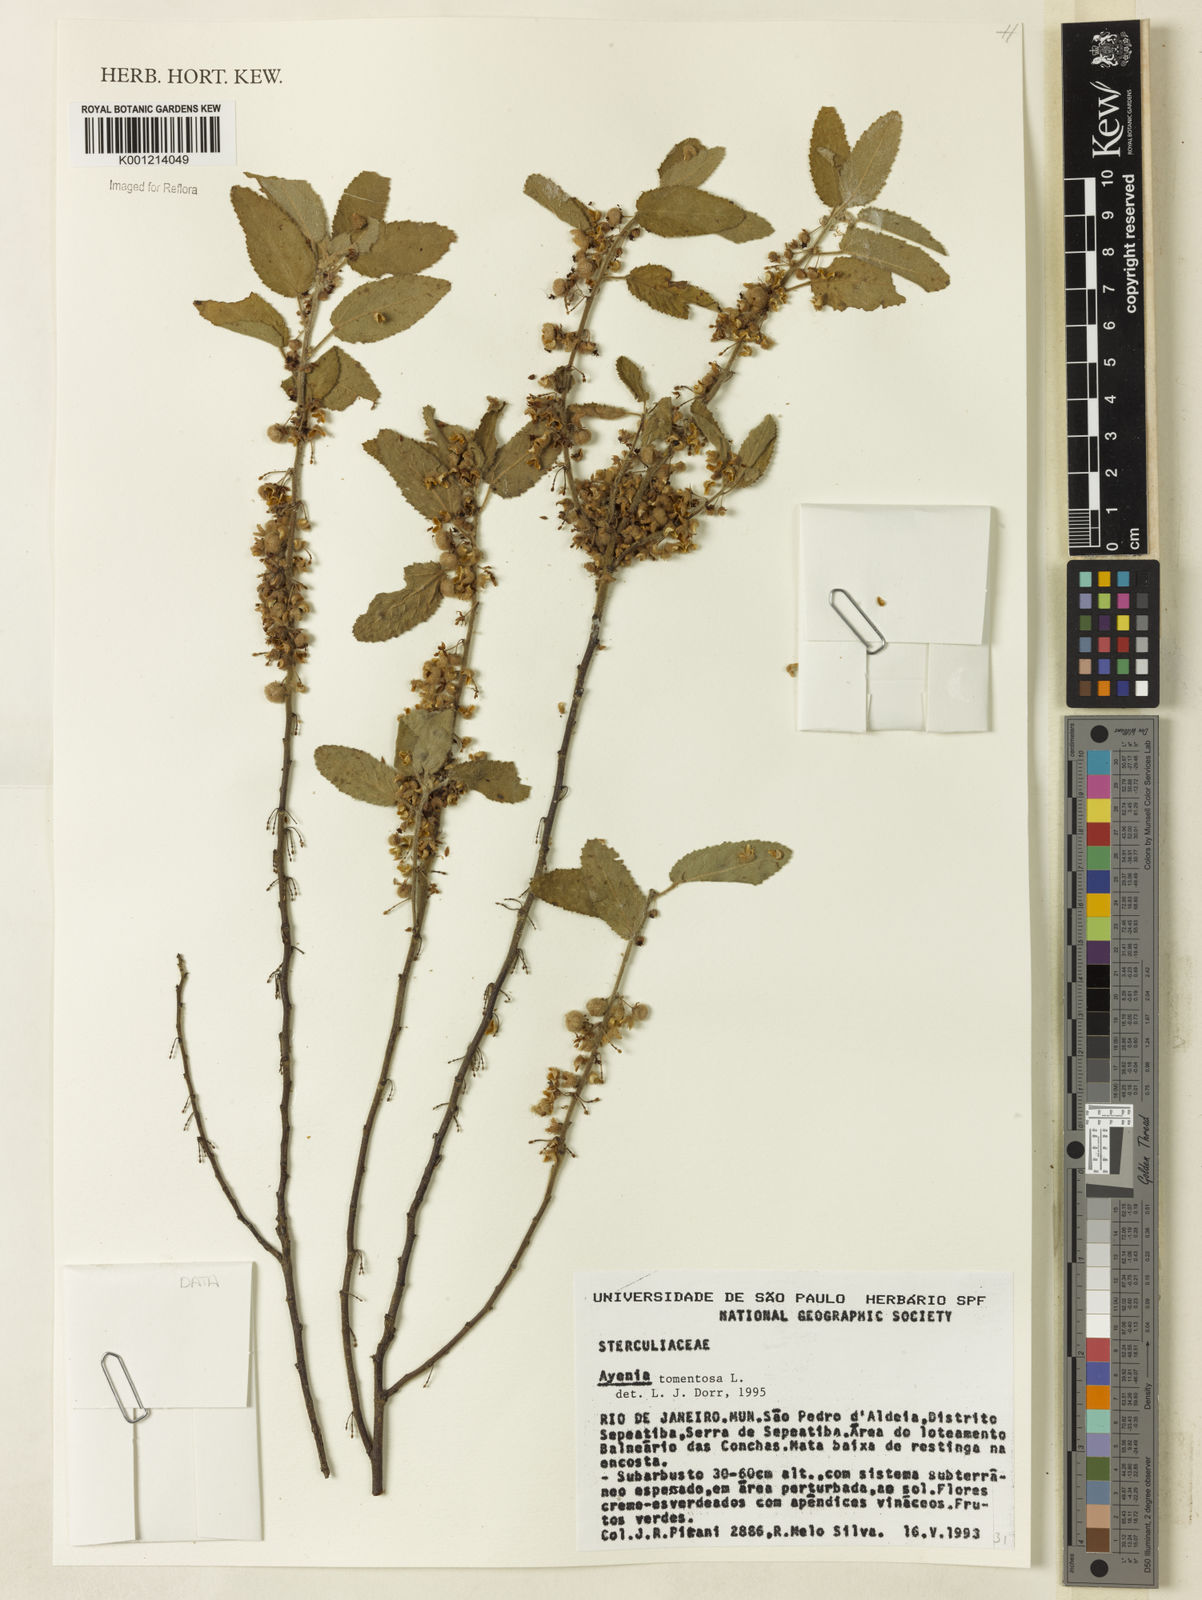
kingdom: Plantae
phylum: Tracheophyta
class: Magnoliopsida
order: Malvales
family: Malvaceae
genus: Ayenia
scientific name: Ayenia tomentosa
